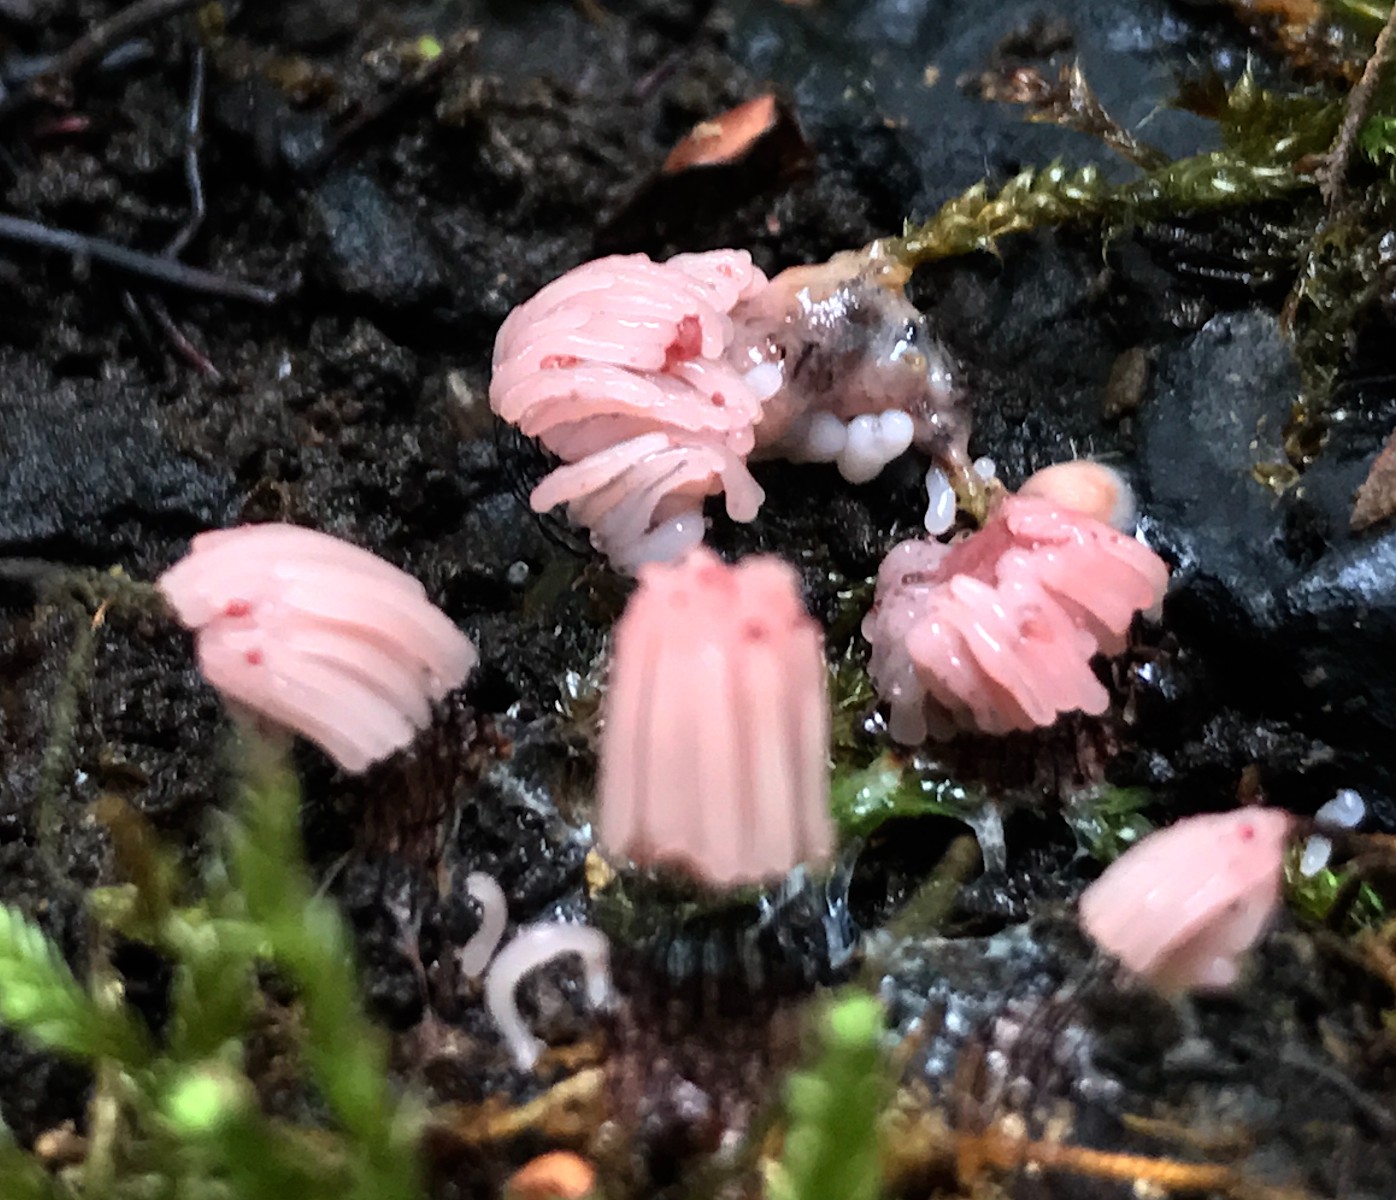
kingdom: Protozoa
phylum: Mycetozoa
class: Myxomycetes
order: Stemonitidales
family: Stemonitidaceae
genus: Stemonitis
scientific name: Stemonitis
